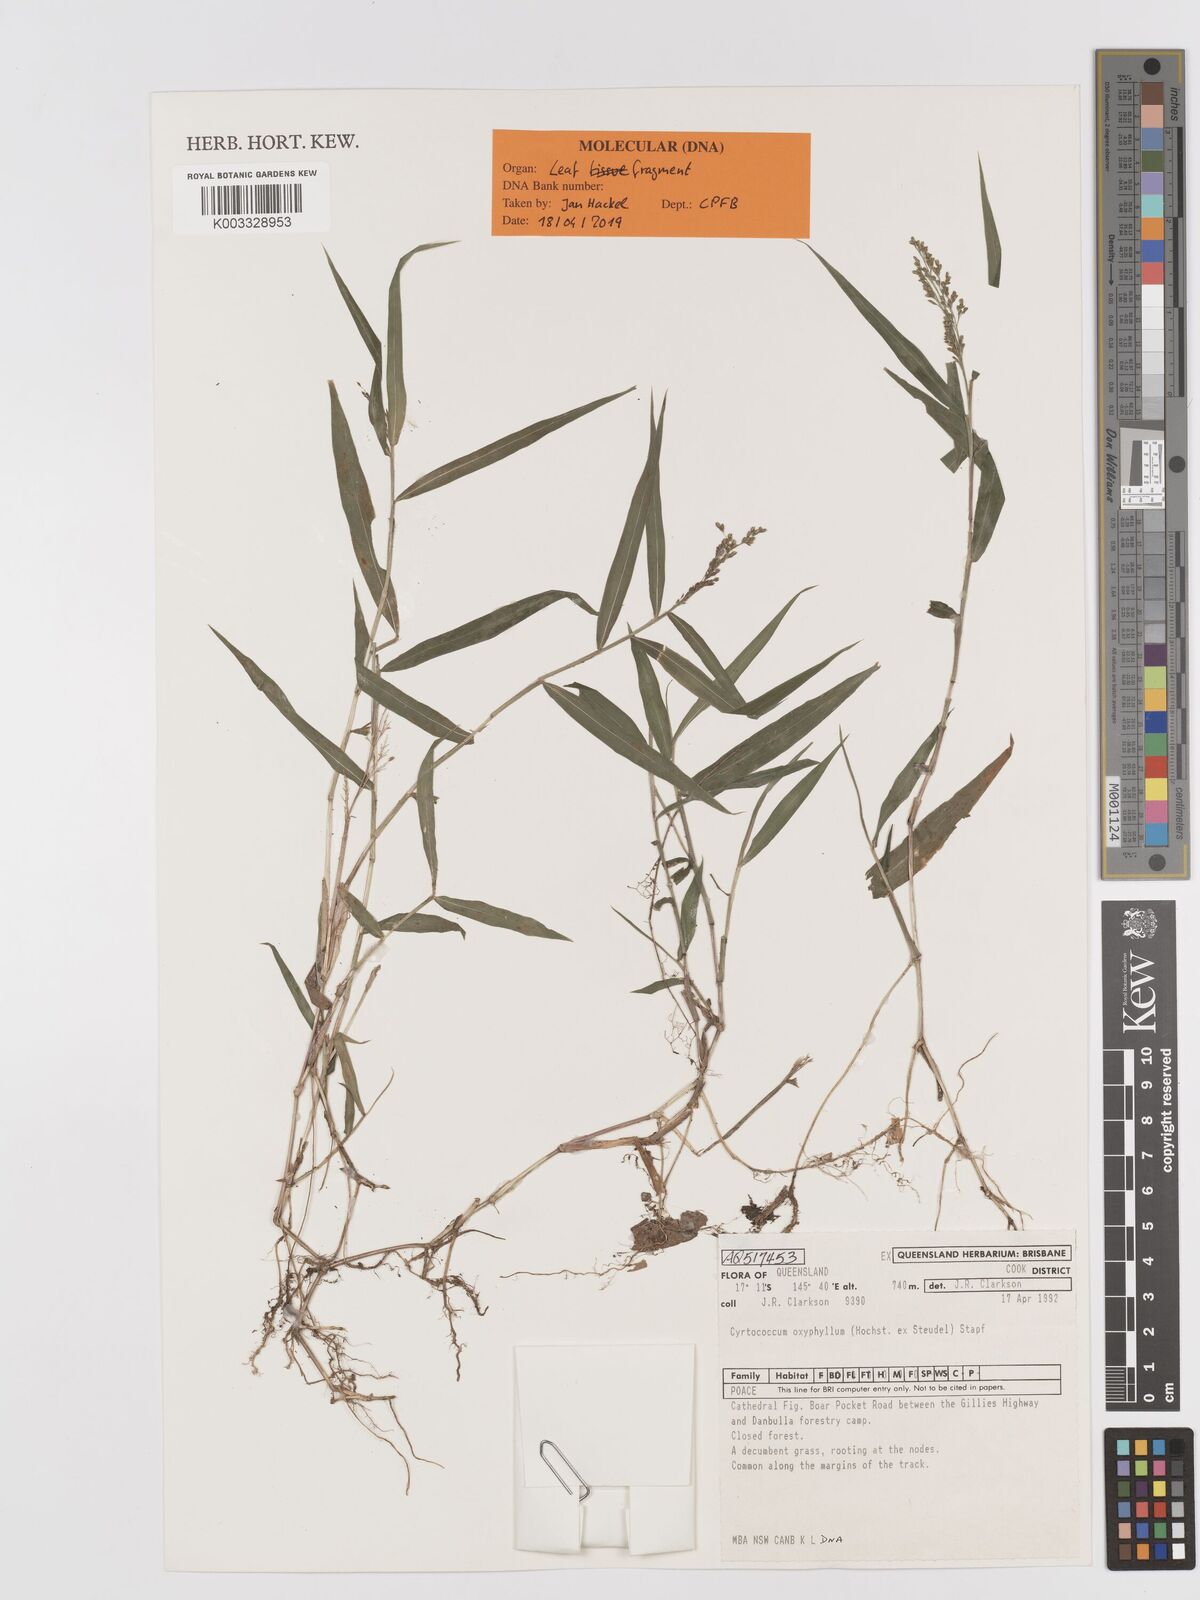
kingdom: Plantae
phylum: Tracheophyta
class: Liliopsida
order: Poales
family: Poaceae
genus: Cyrtococcum
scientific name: Cyrtococcum oxyphyllum
